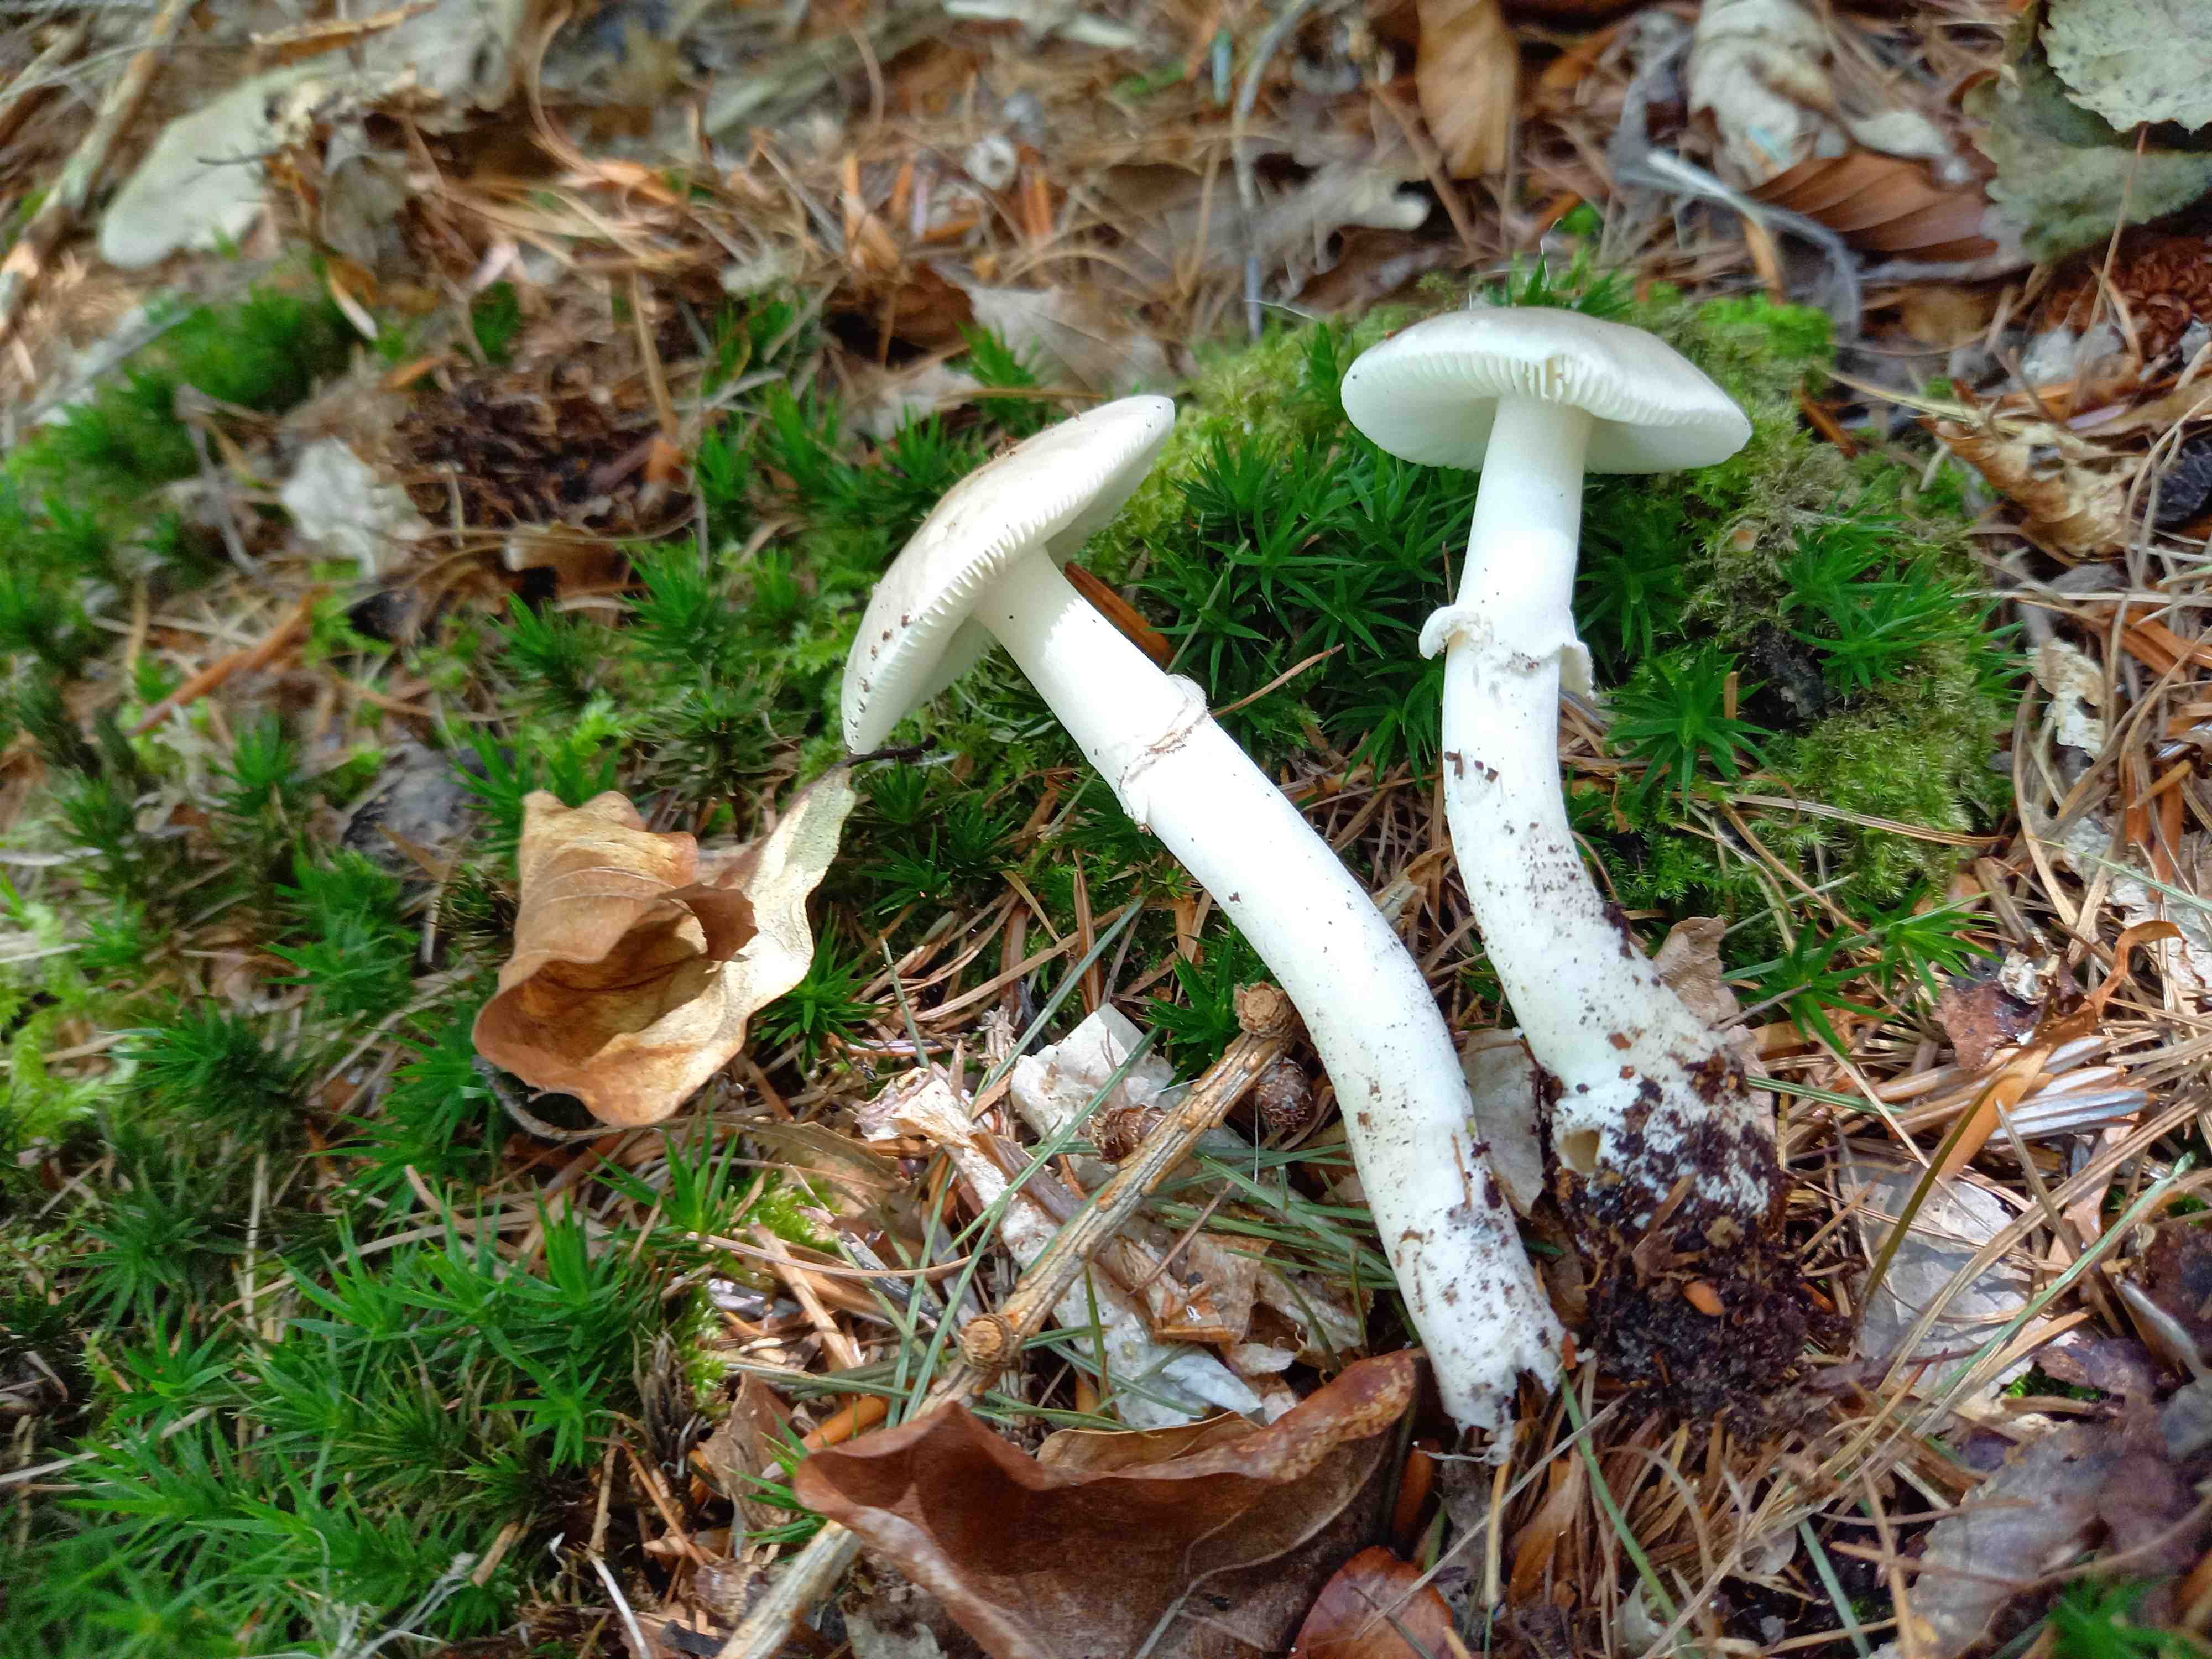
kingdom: Fungi
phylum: Basidiomycota
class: Agaricomycetes
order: Agaricales
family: Amanitaceae
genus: Amanita
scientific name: Amanita
